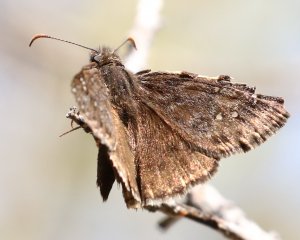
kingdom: Animalia
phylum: Arthropoda
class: Insecta
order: Lepidoptera
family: Hesperiidae
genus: Erynnis
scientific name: Erynnis telemachus
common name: Rocky Mountain Duskywing
